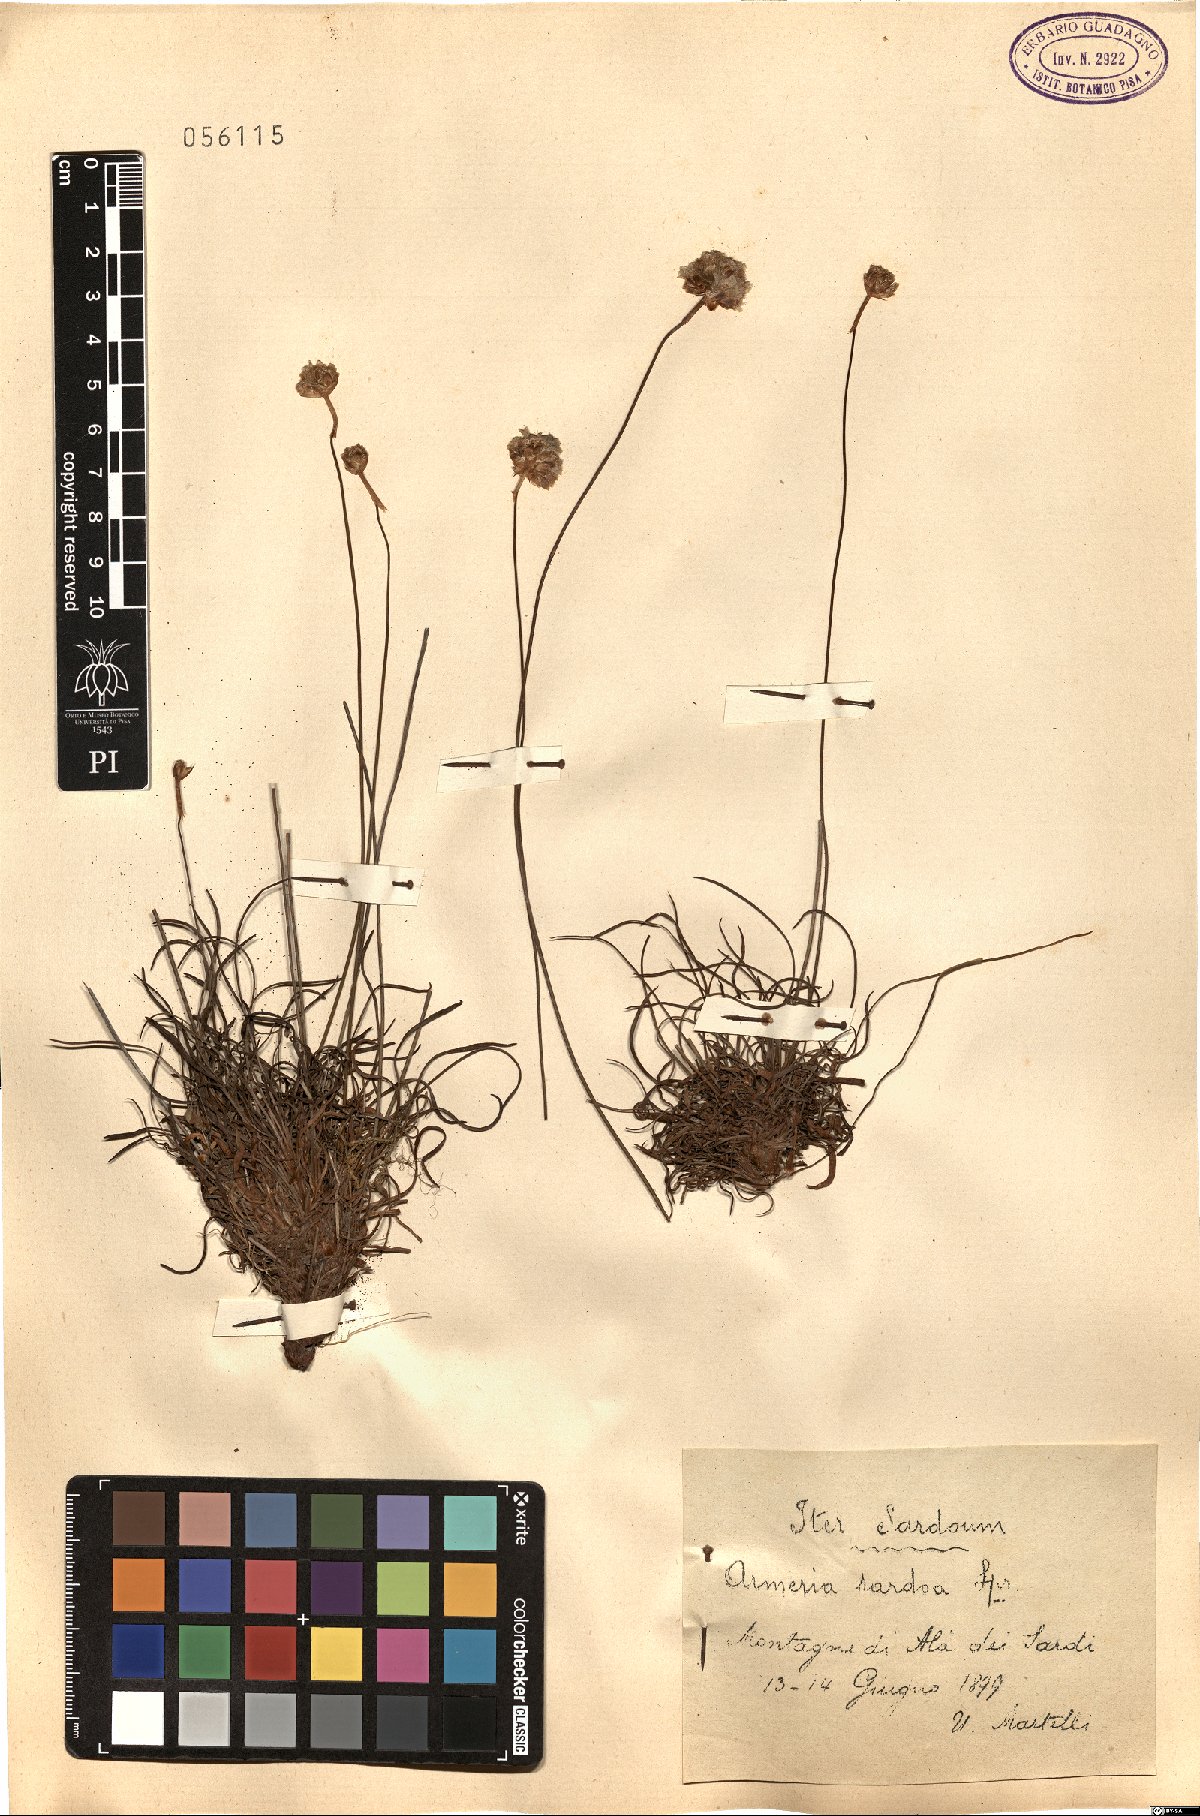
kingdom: Plantae
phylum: Tracheophyta
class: Magnoliopsida
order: Caryophyllales
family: Plumbaginaceae
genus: Armeria
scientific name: Armeria sardoa
